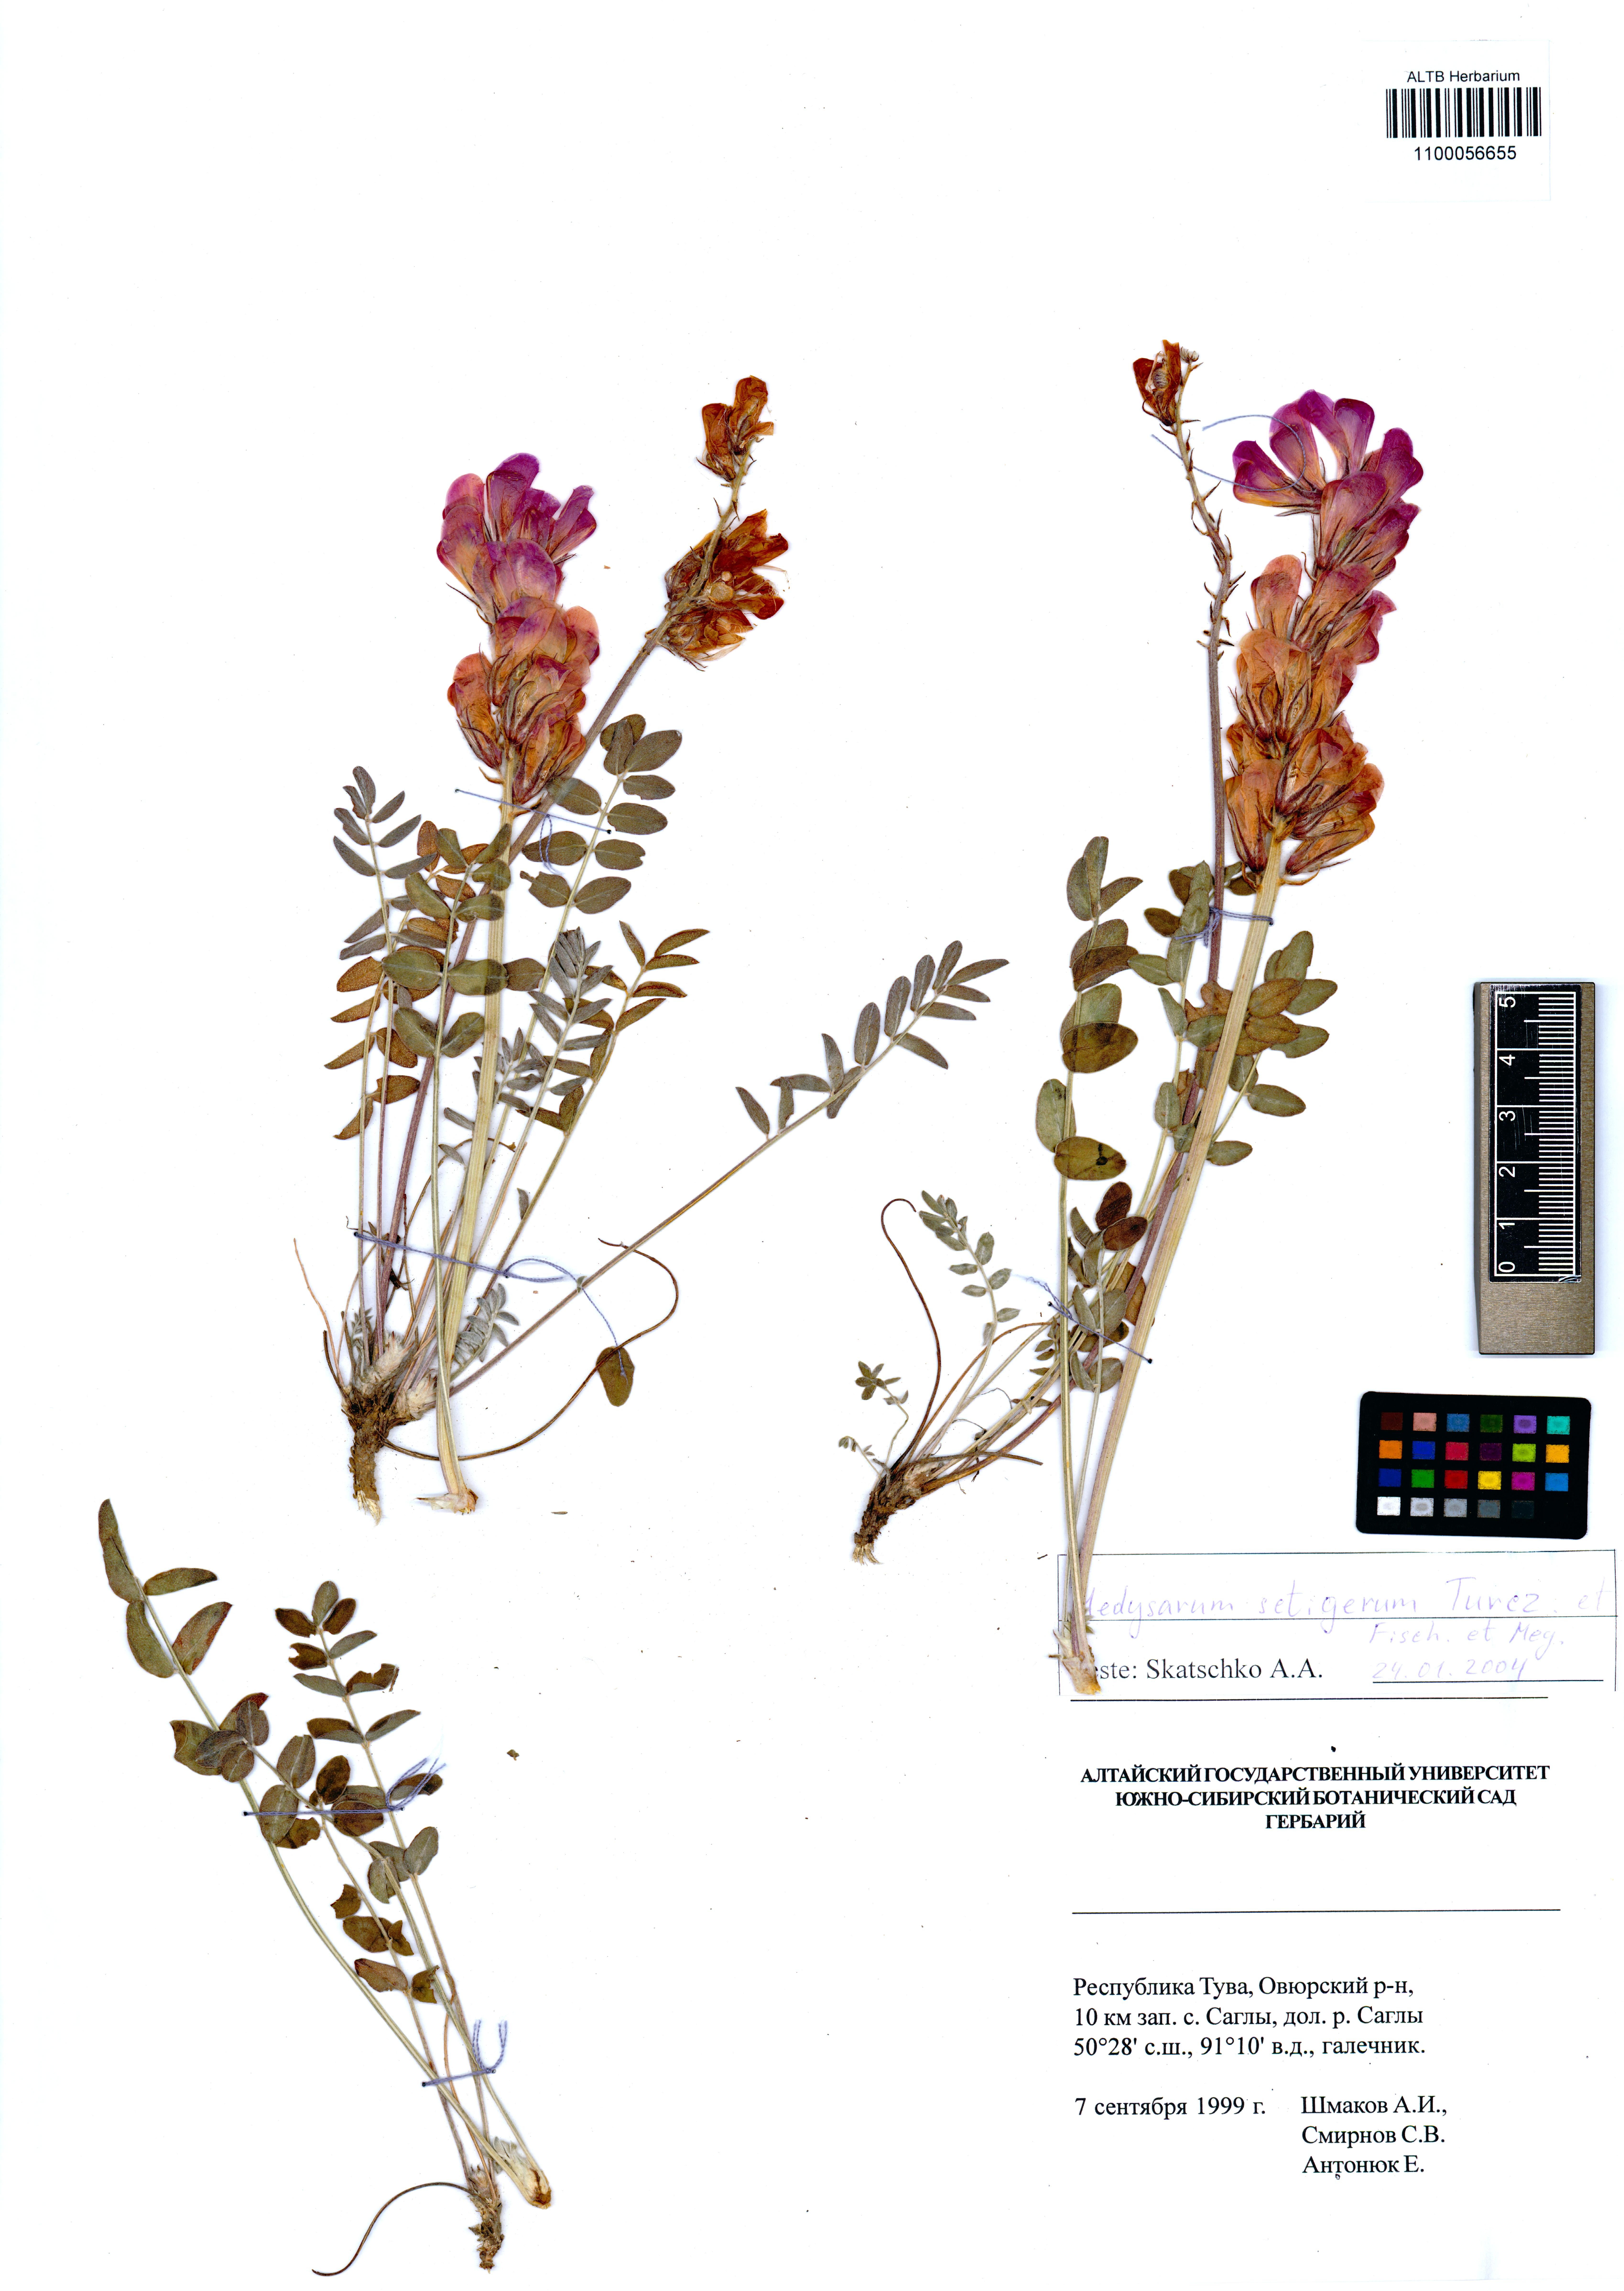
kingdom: Plantae
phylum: Tracheophyta
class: Magnoliopsida
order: Fabales
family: Fabaceae
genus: Hedysarum
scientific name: Hedysarum setigerum
